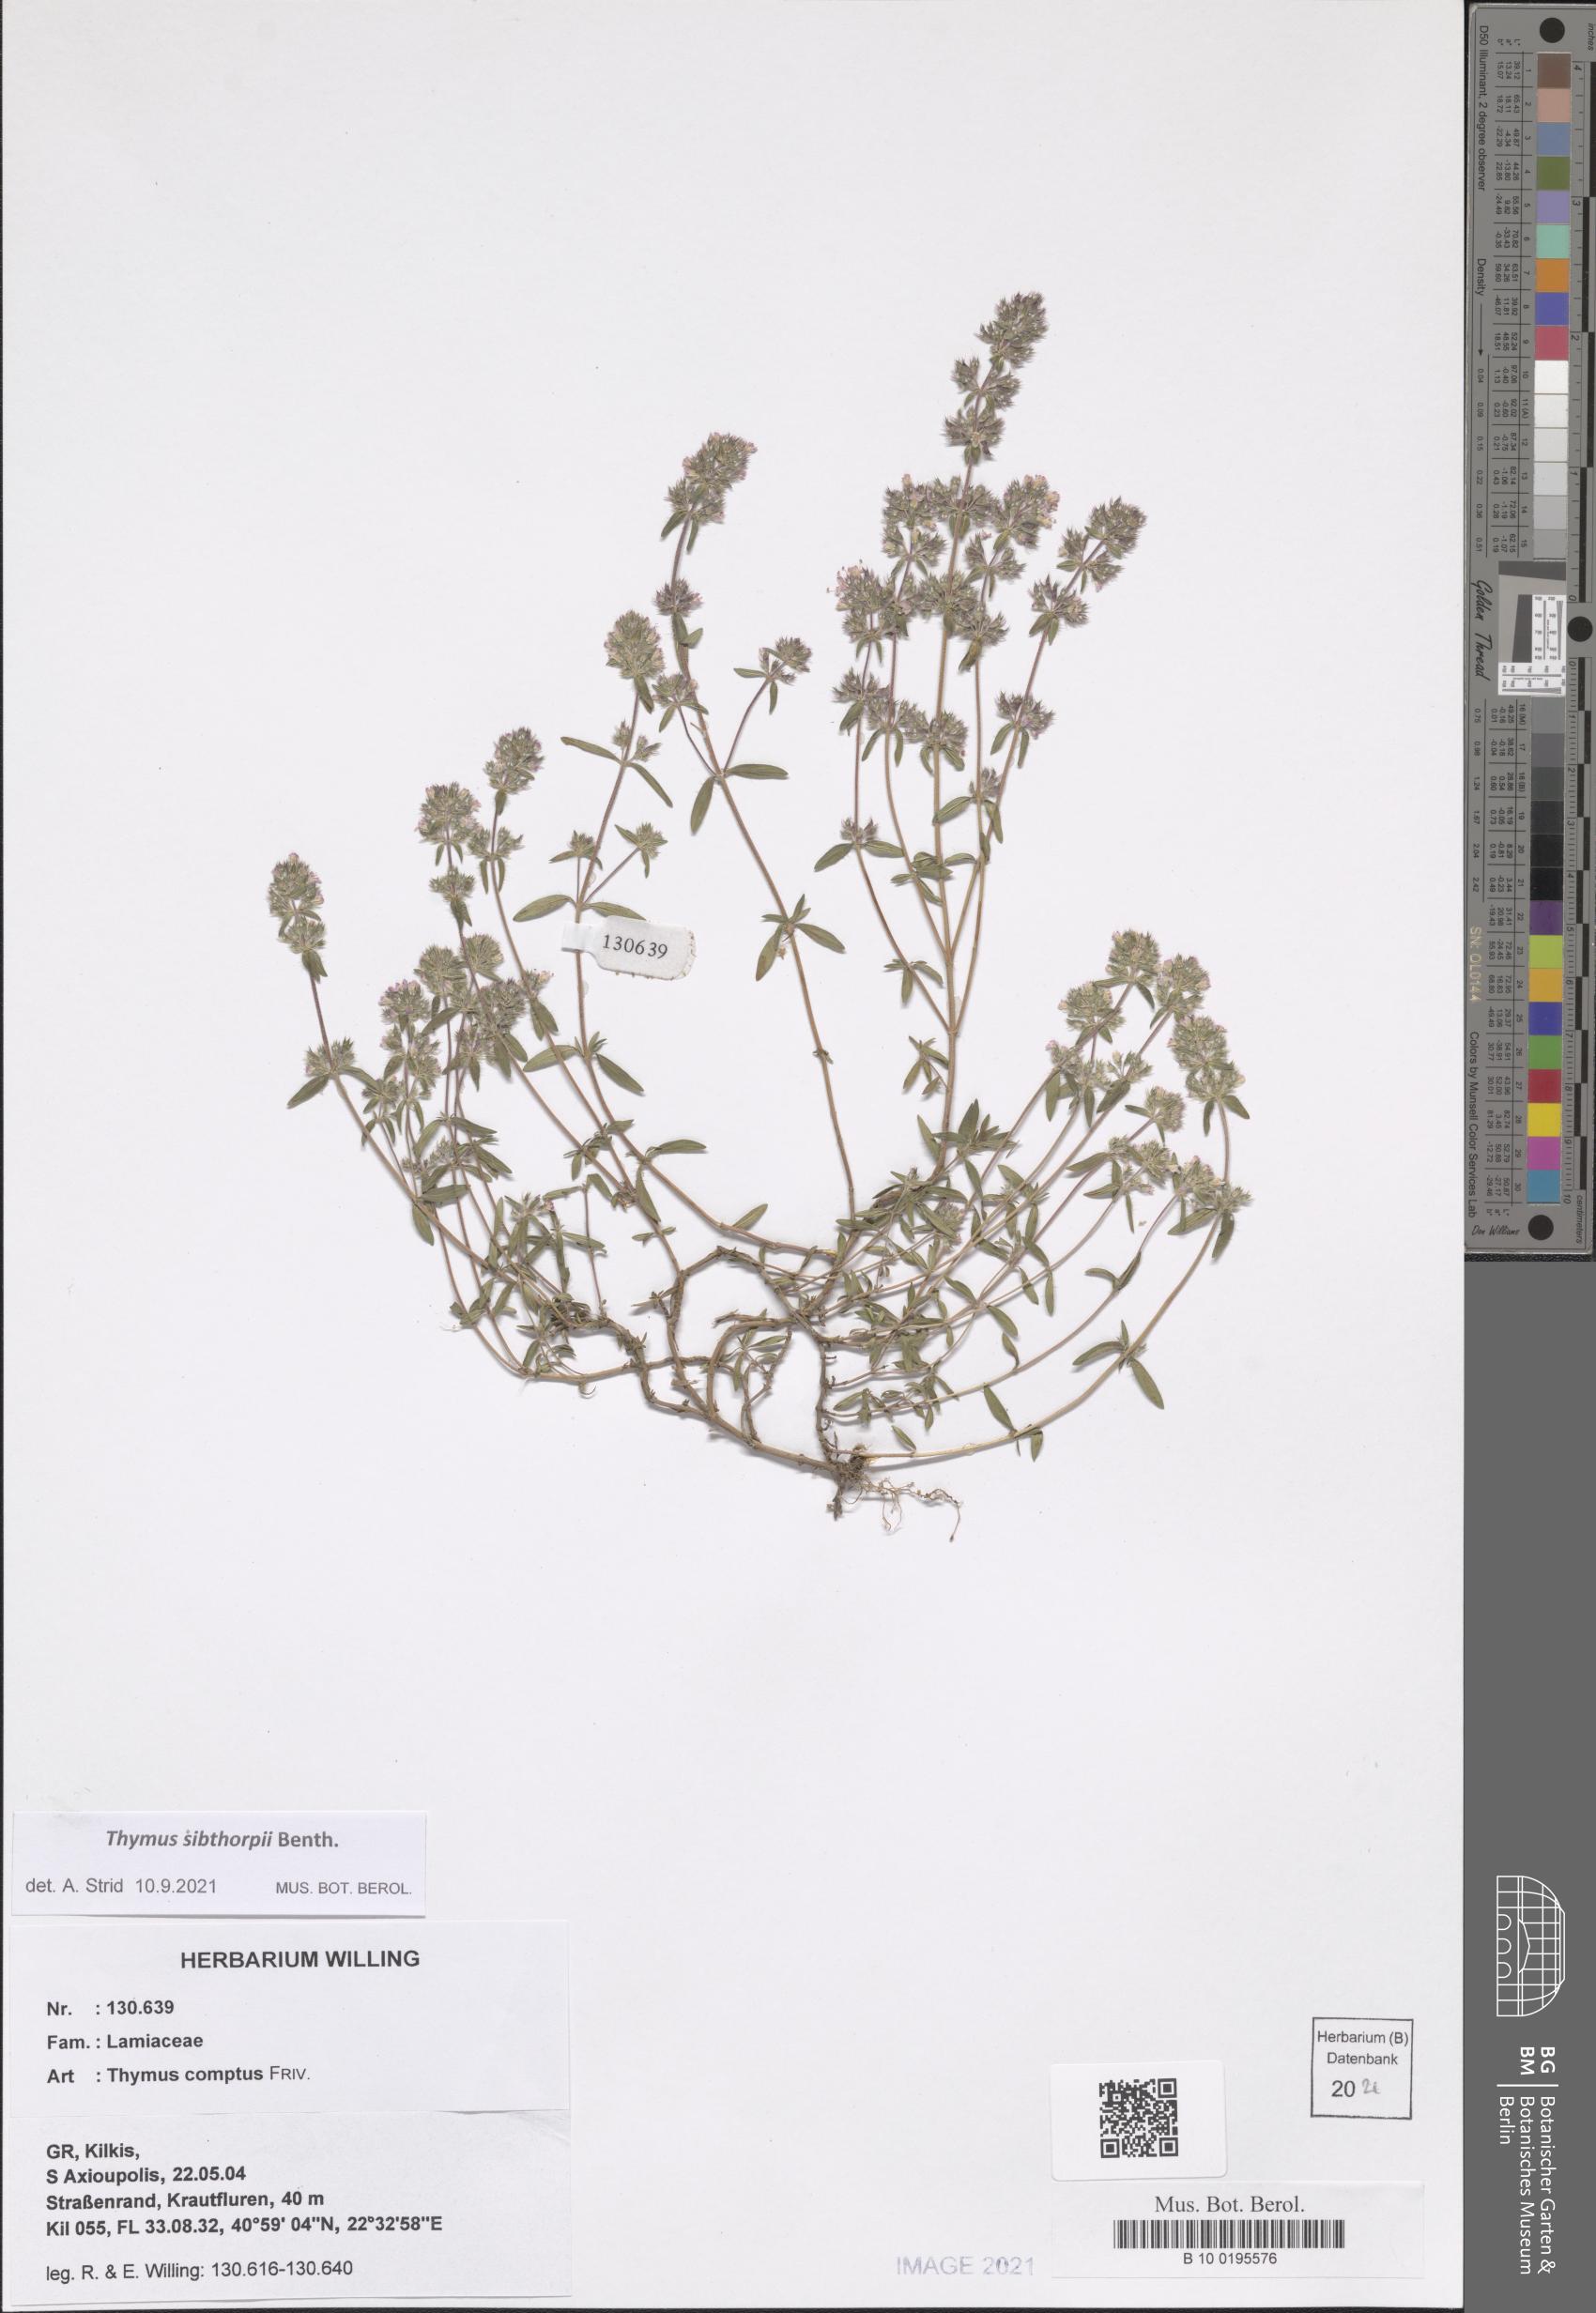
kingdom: Plantae
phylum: Tracheophyta
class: Magnoliopsida
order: Lamiales
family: Lamiaceae
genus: Thymus
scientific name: Thymus sibthorpii
